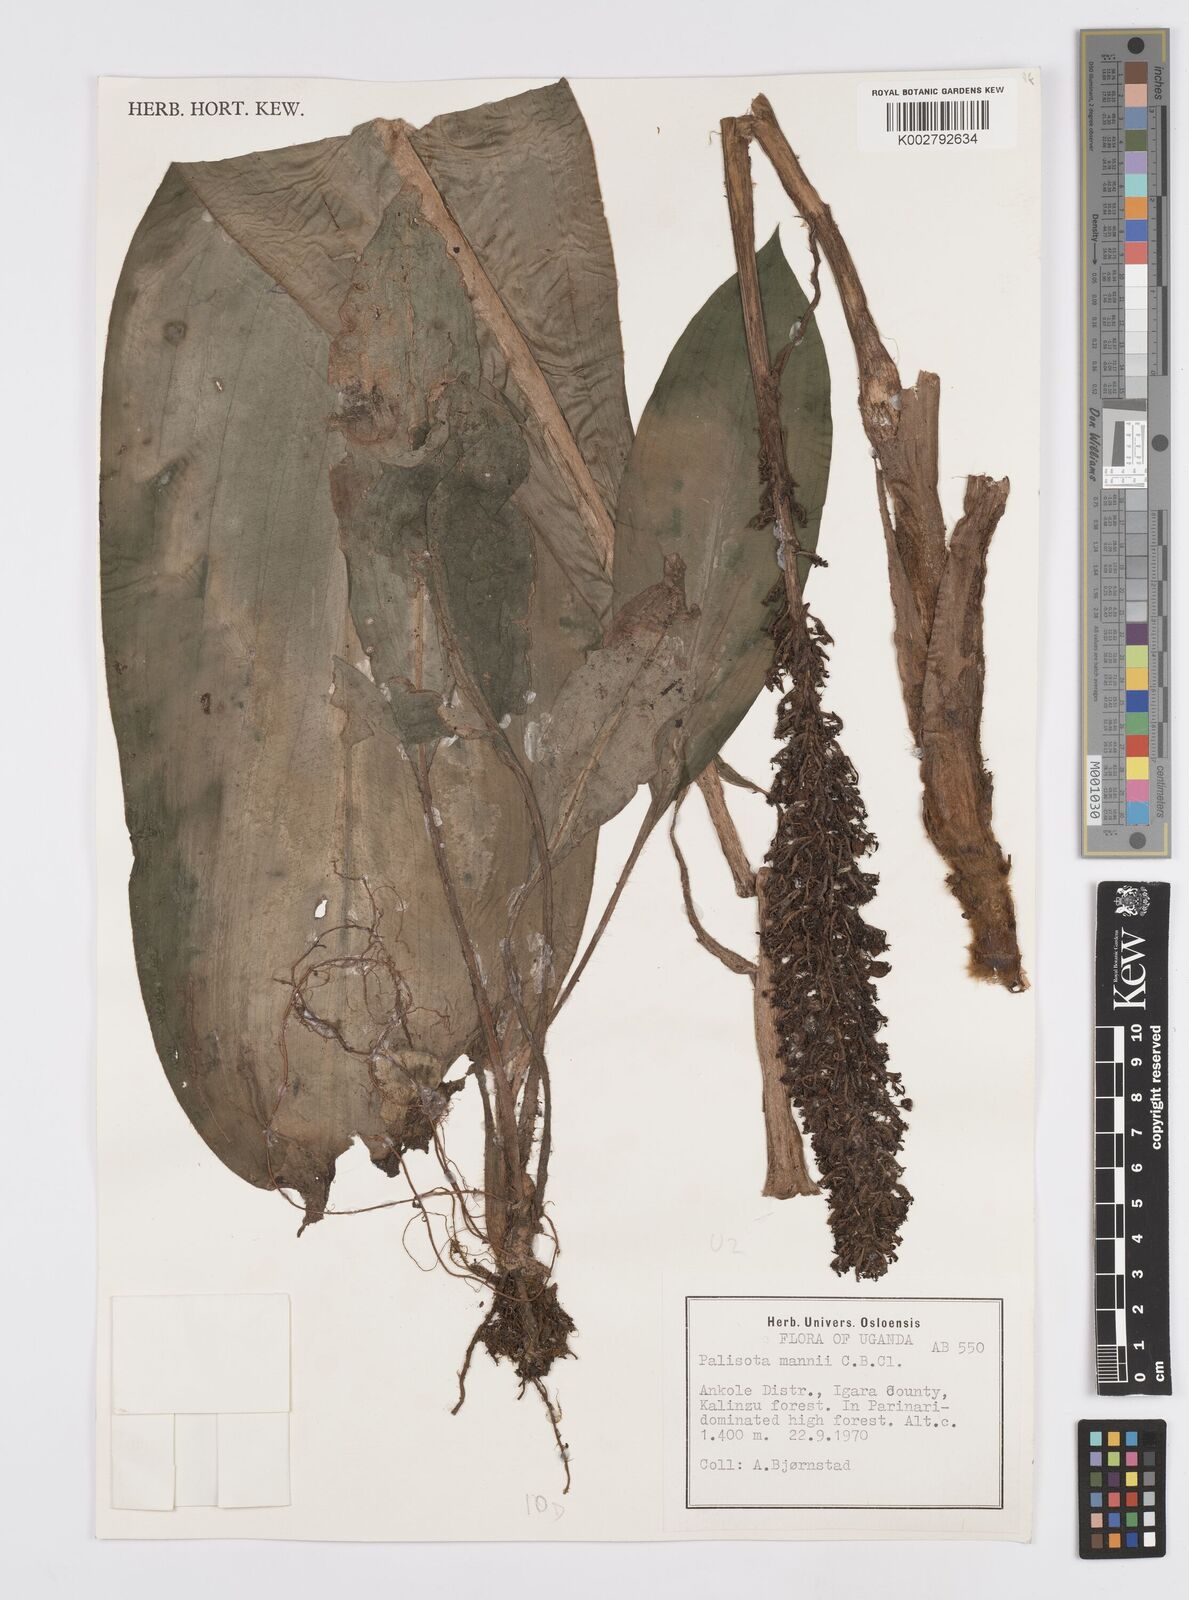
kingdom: Plantae
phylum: Tracheophyta
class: Liliopsida
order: Commelinales
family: Commelinaceae
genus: Palisota
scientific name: Palisota mannii
